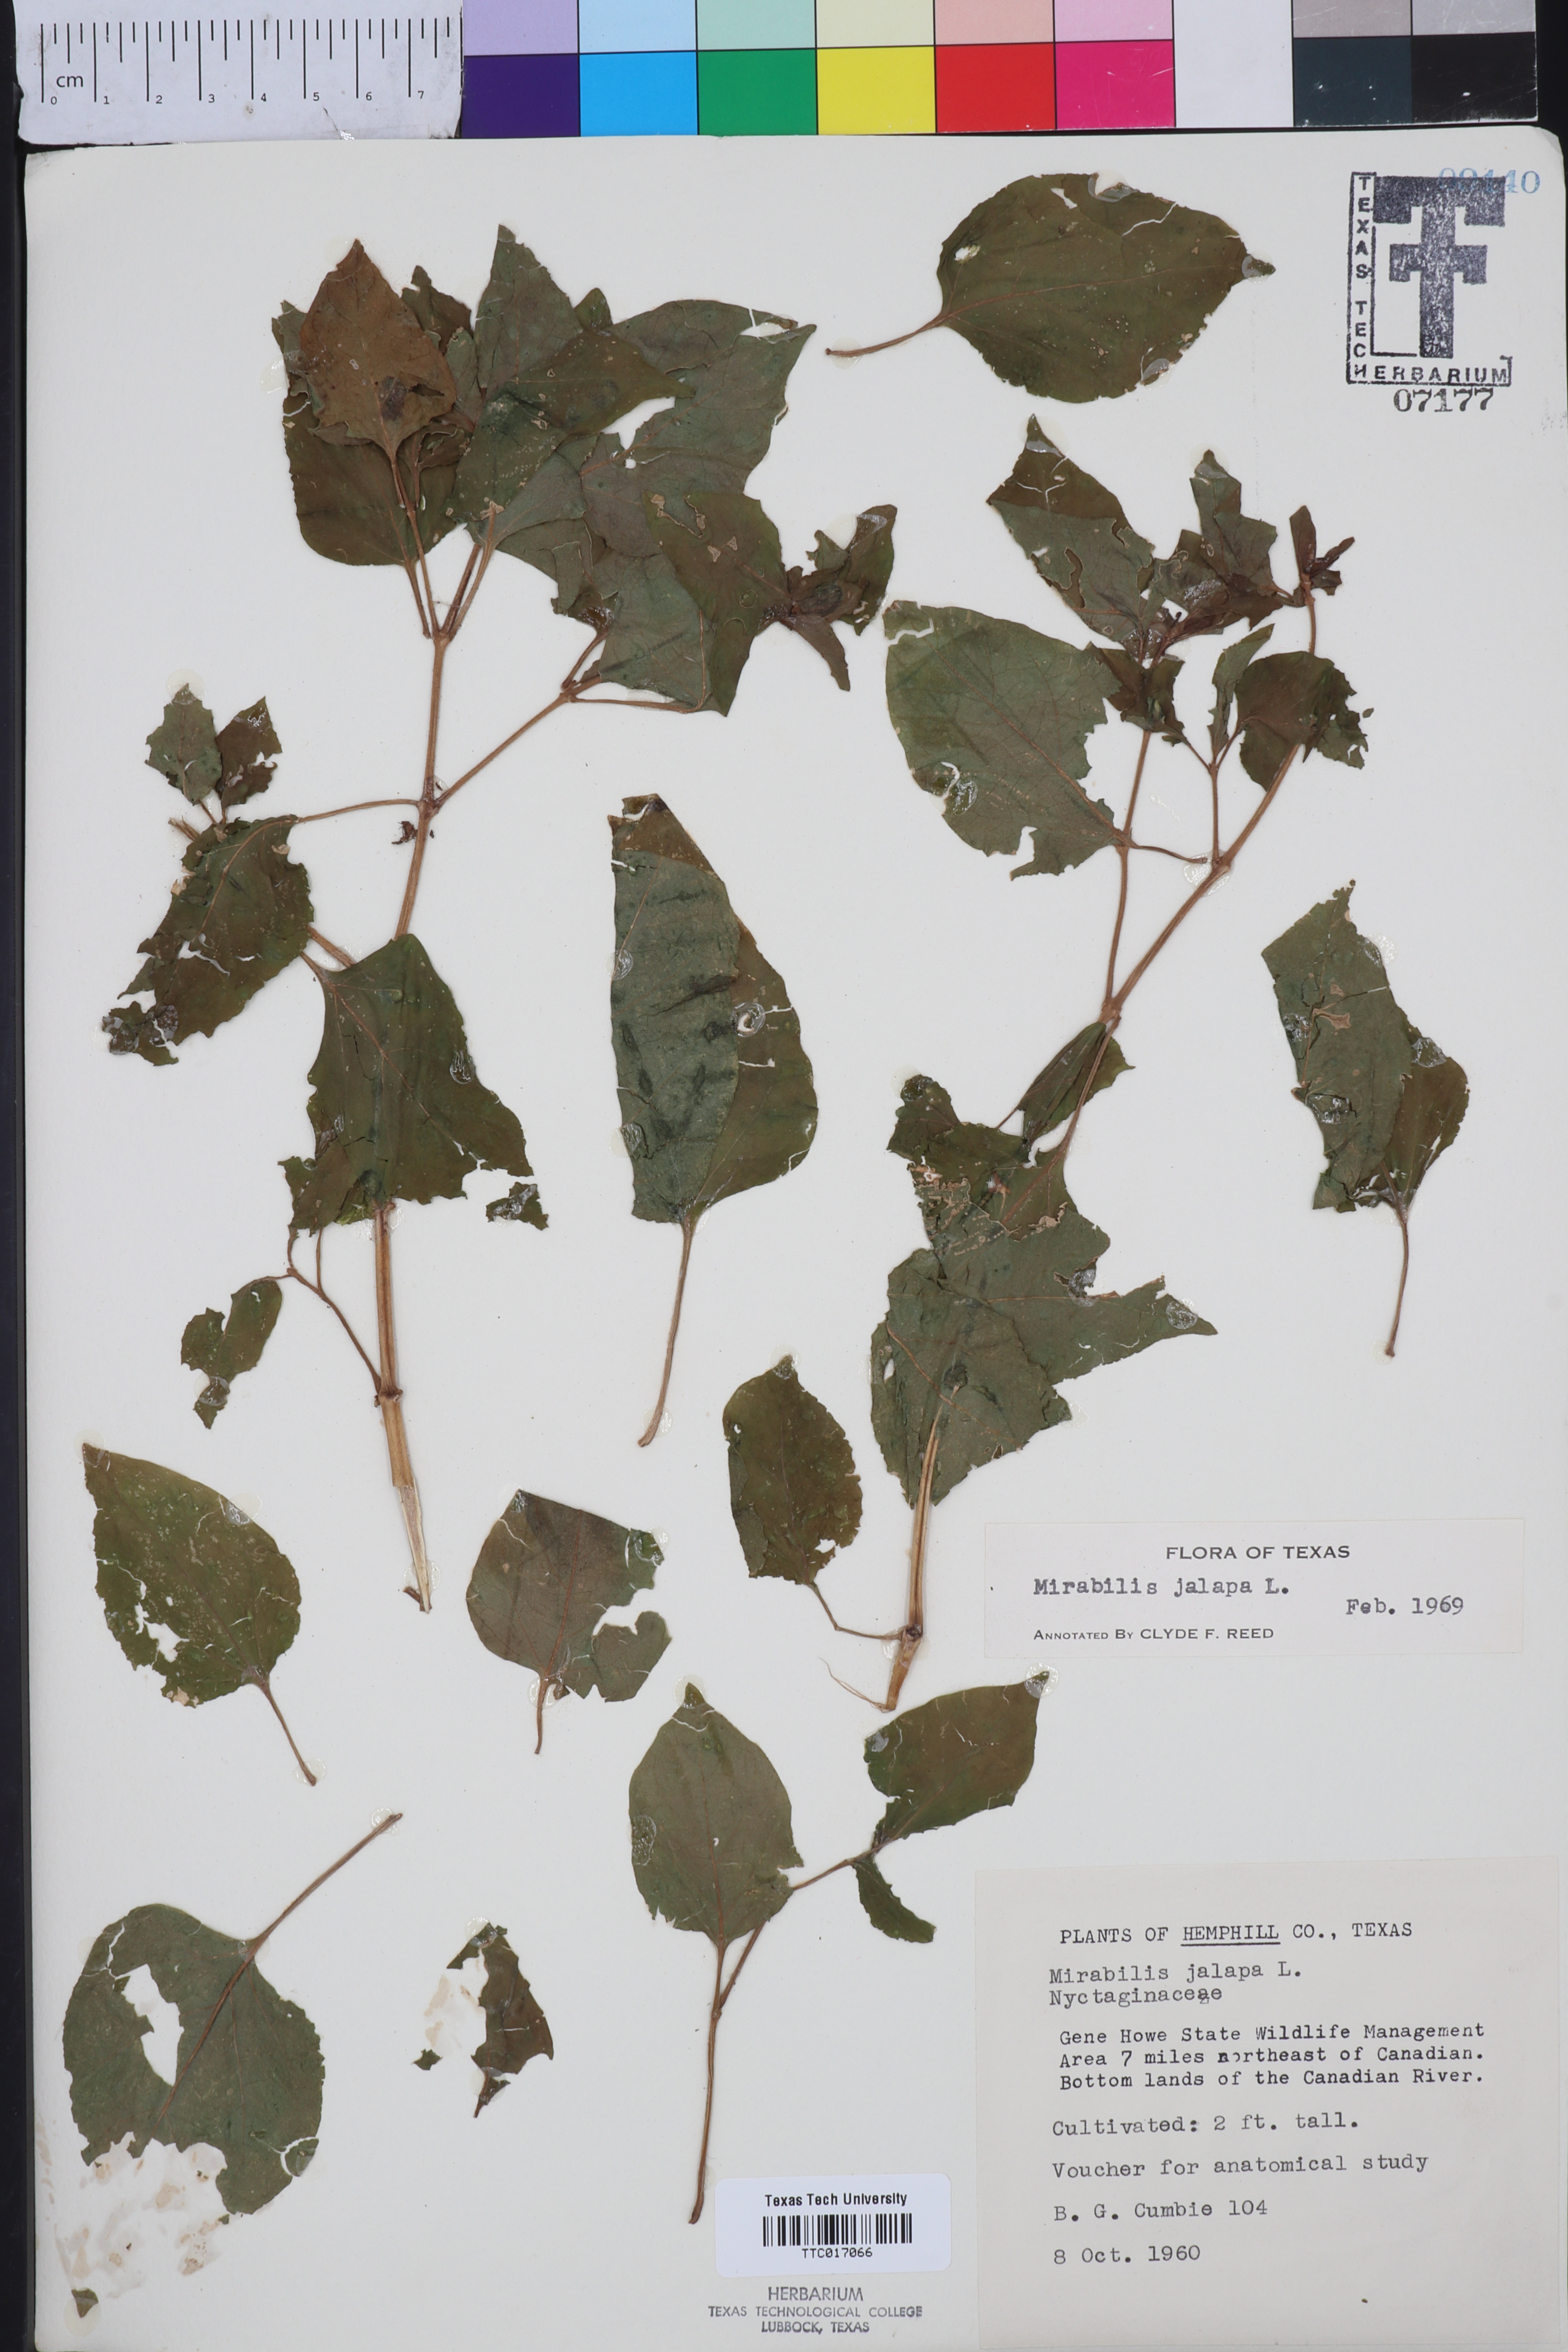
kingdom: Plantae
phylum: Tracheophyta
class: Magnoliopsida
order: Caryophyllales
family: Nyctaginaceae
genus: Mirabilis
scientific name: Mirabilis jalapa
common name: Marvel-of-peru
